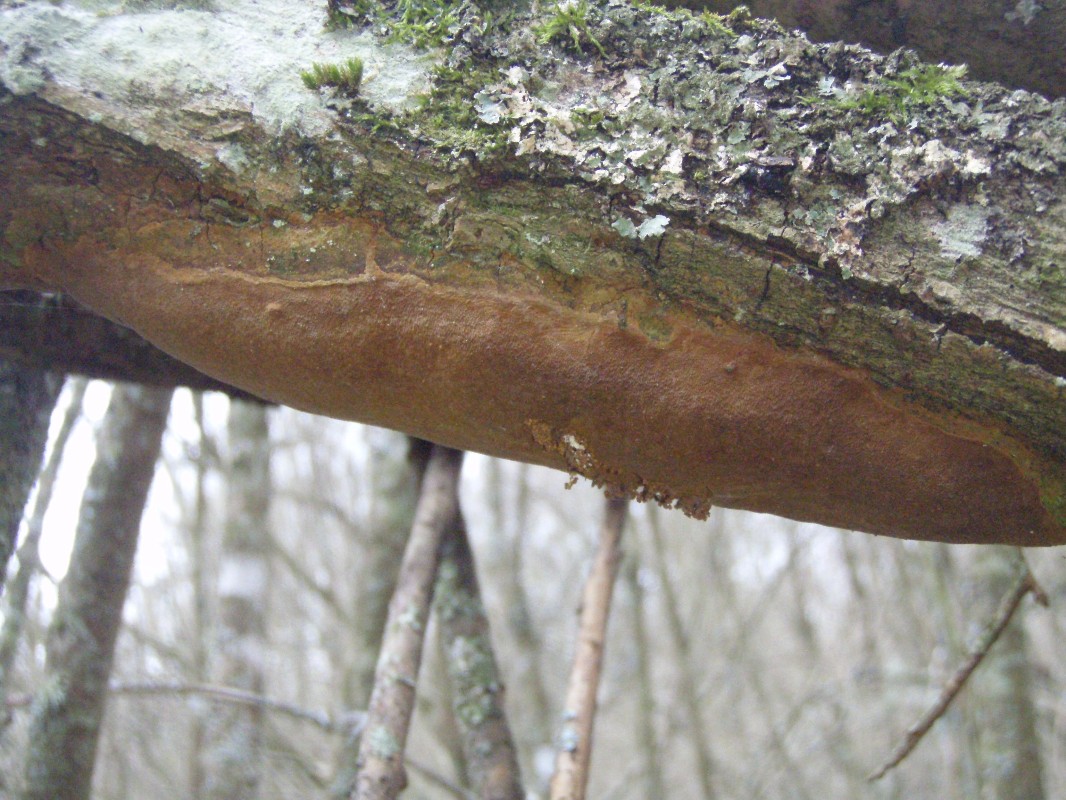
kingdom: Fungi
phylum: Basidiomycota
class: Agaricomycetes
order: Hymenochaetales
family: Hymenochaetaceae
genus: Fomitiporia
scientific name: Fomitiporia punctata
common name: pude-ildporesvamp
